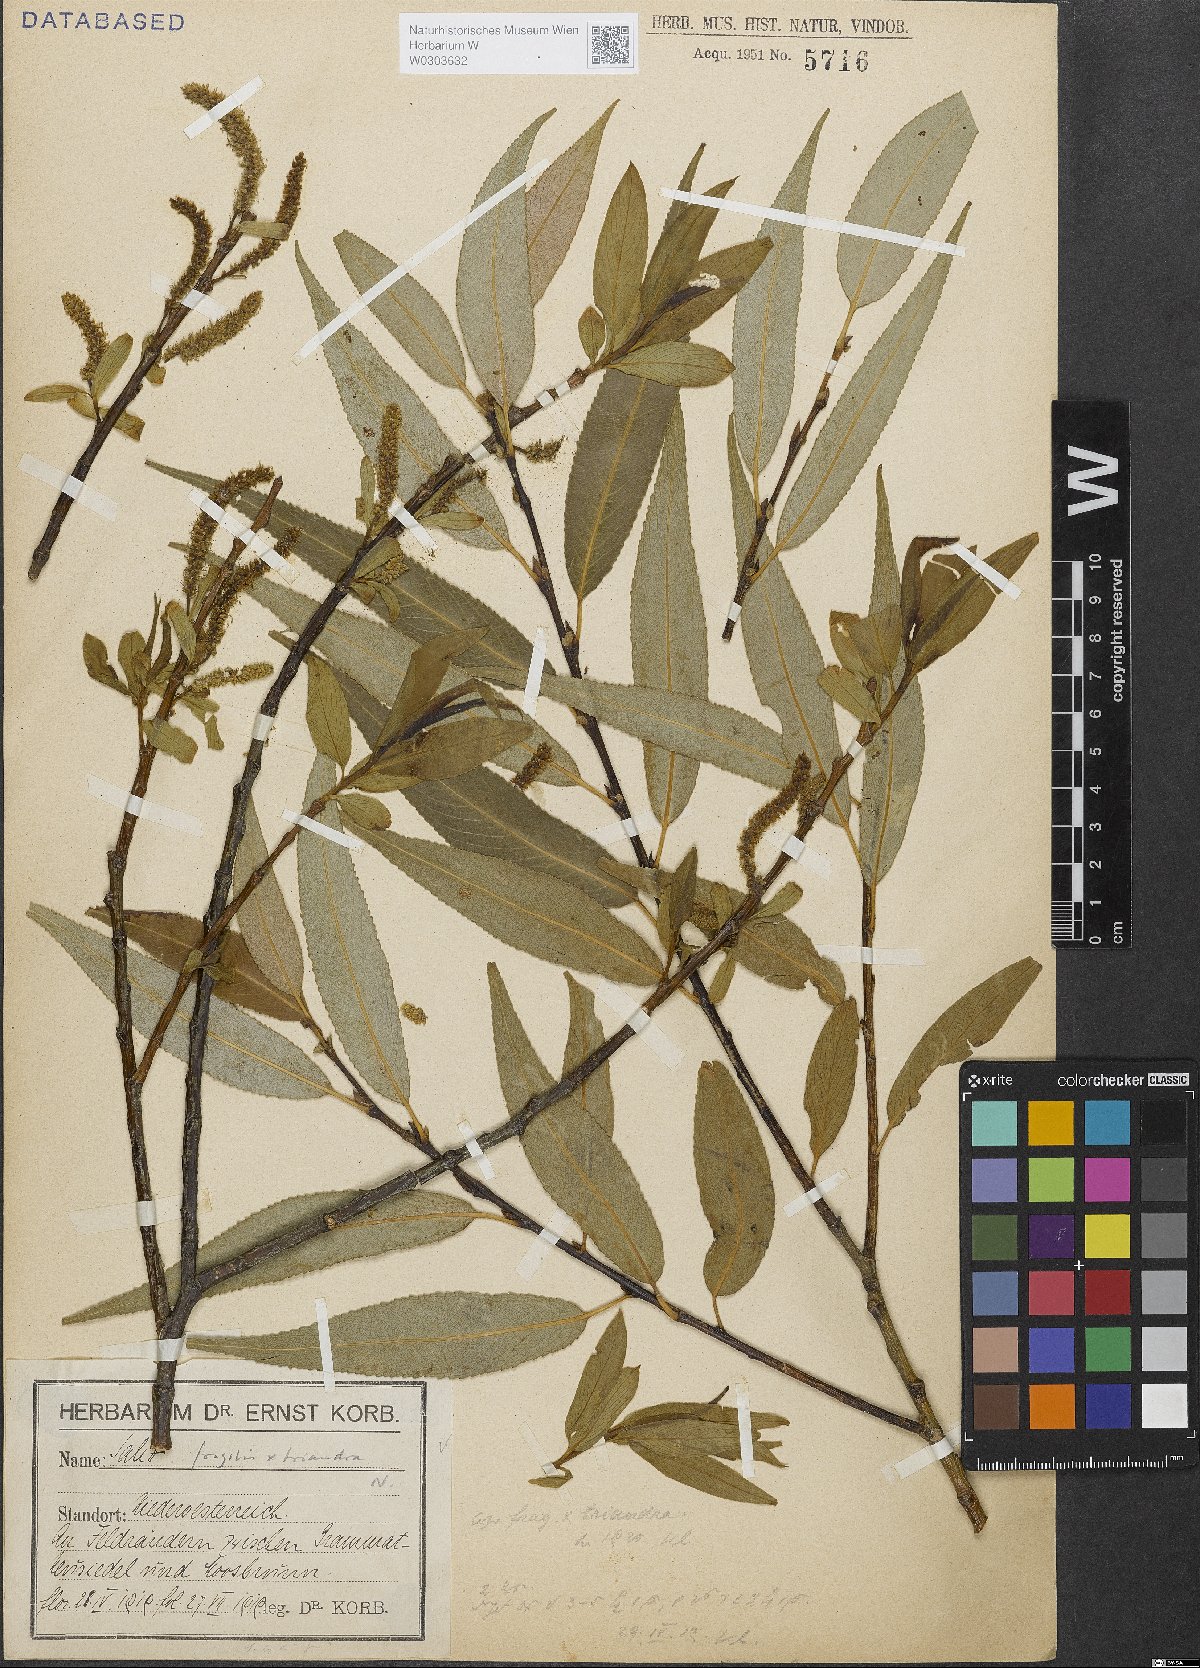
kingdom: Plantae
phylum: Tracheophyta
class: Magnoliopsida
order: Malpighiales
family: Salicaceae
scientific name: Salicaceae
